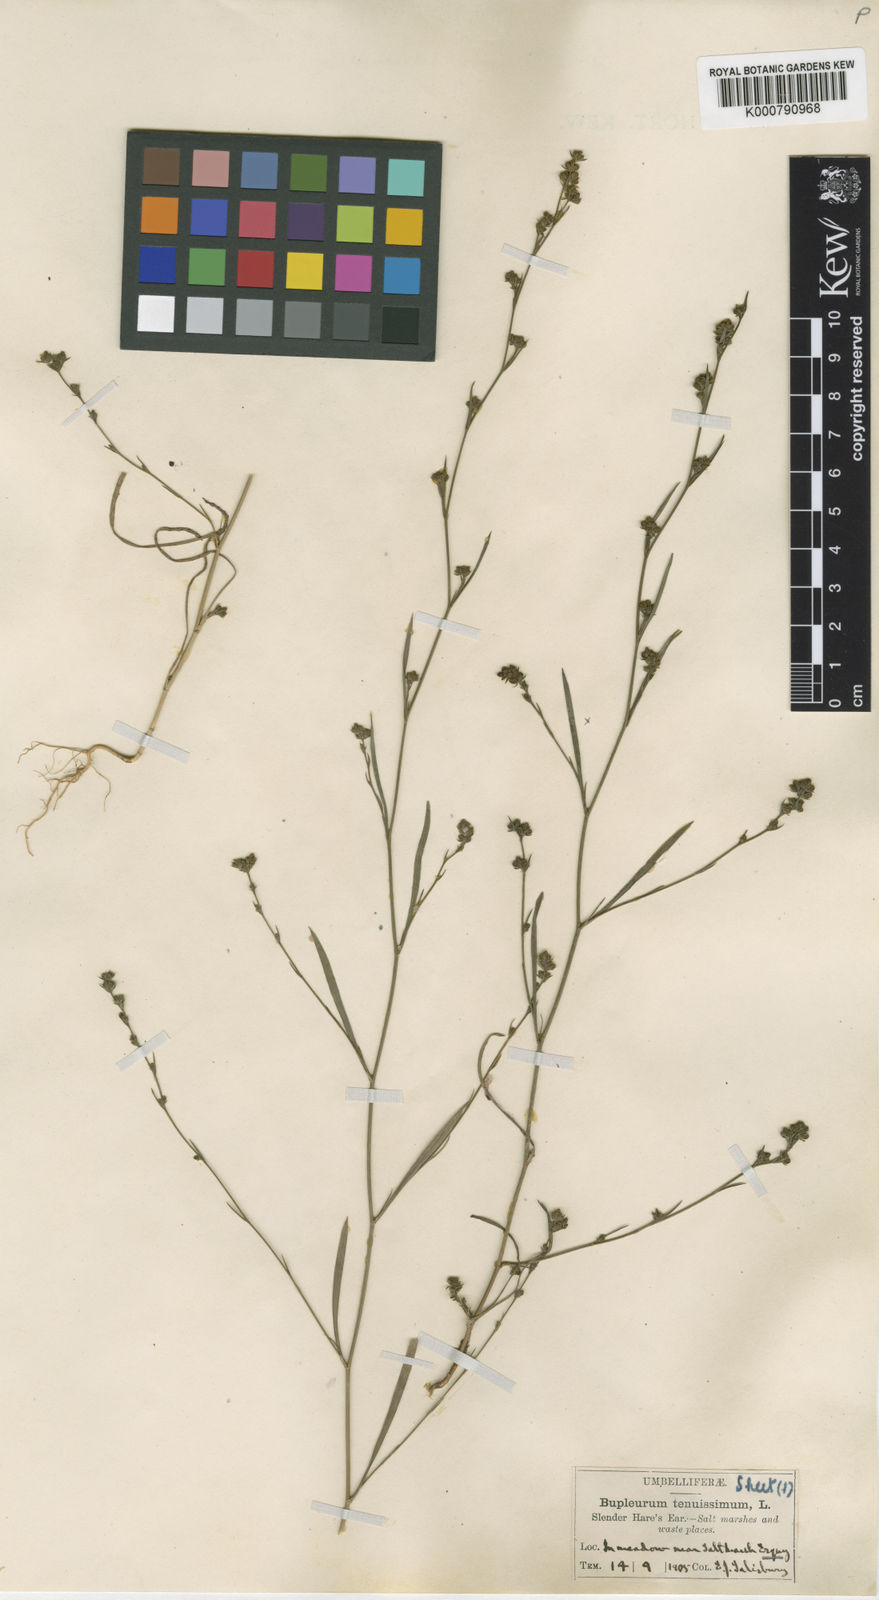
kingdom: Plantae
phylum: Tracheophyta
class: Magnoliopsida
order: Apiales
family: Apiaceae
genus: Bupleurum
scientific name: Bupleurum tenuissimum
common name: Slender hare's-ear
